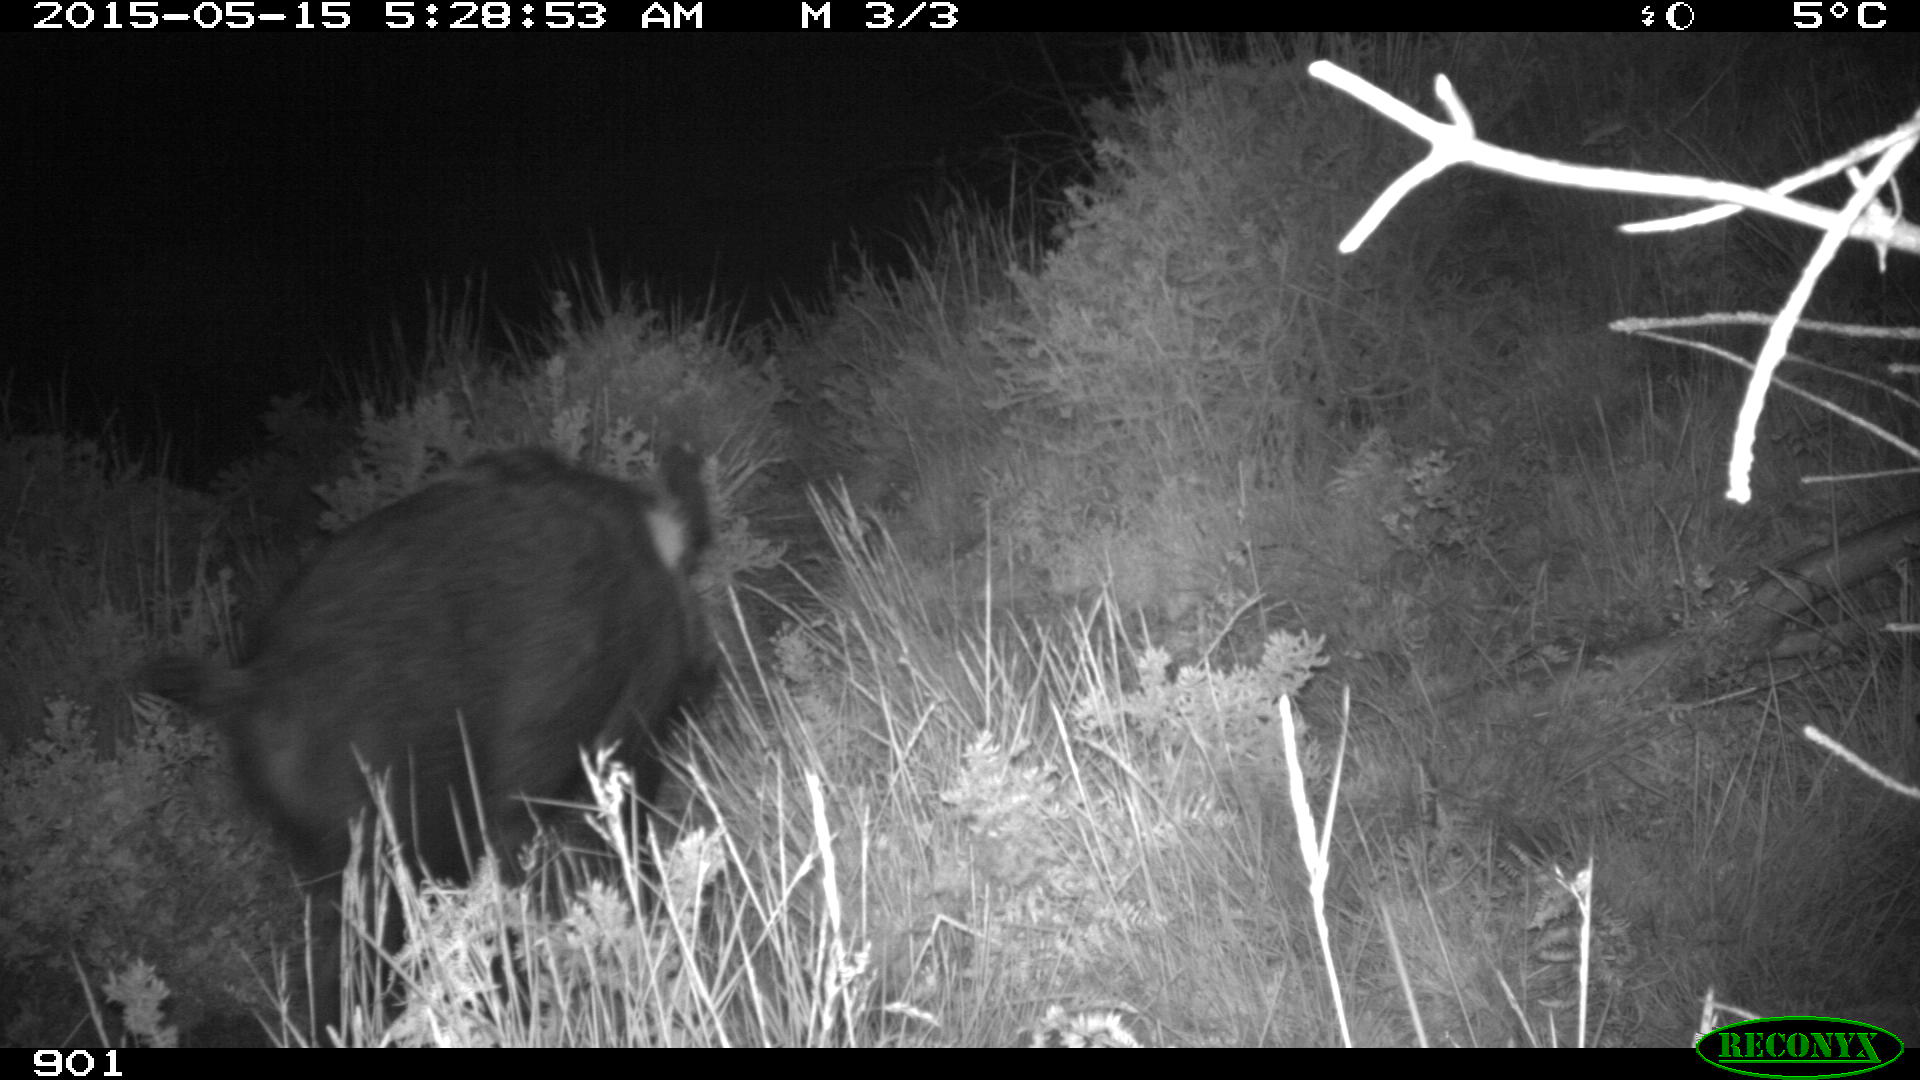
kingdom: Animalia
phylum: Chordata
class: Mammalia
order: Artiodactyla
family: Suidae
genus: Sus
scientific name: Sus scrofa
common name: Wild boar
